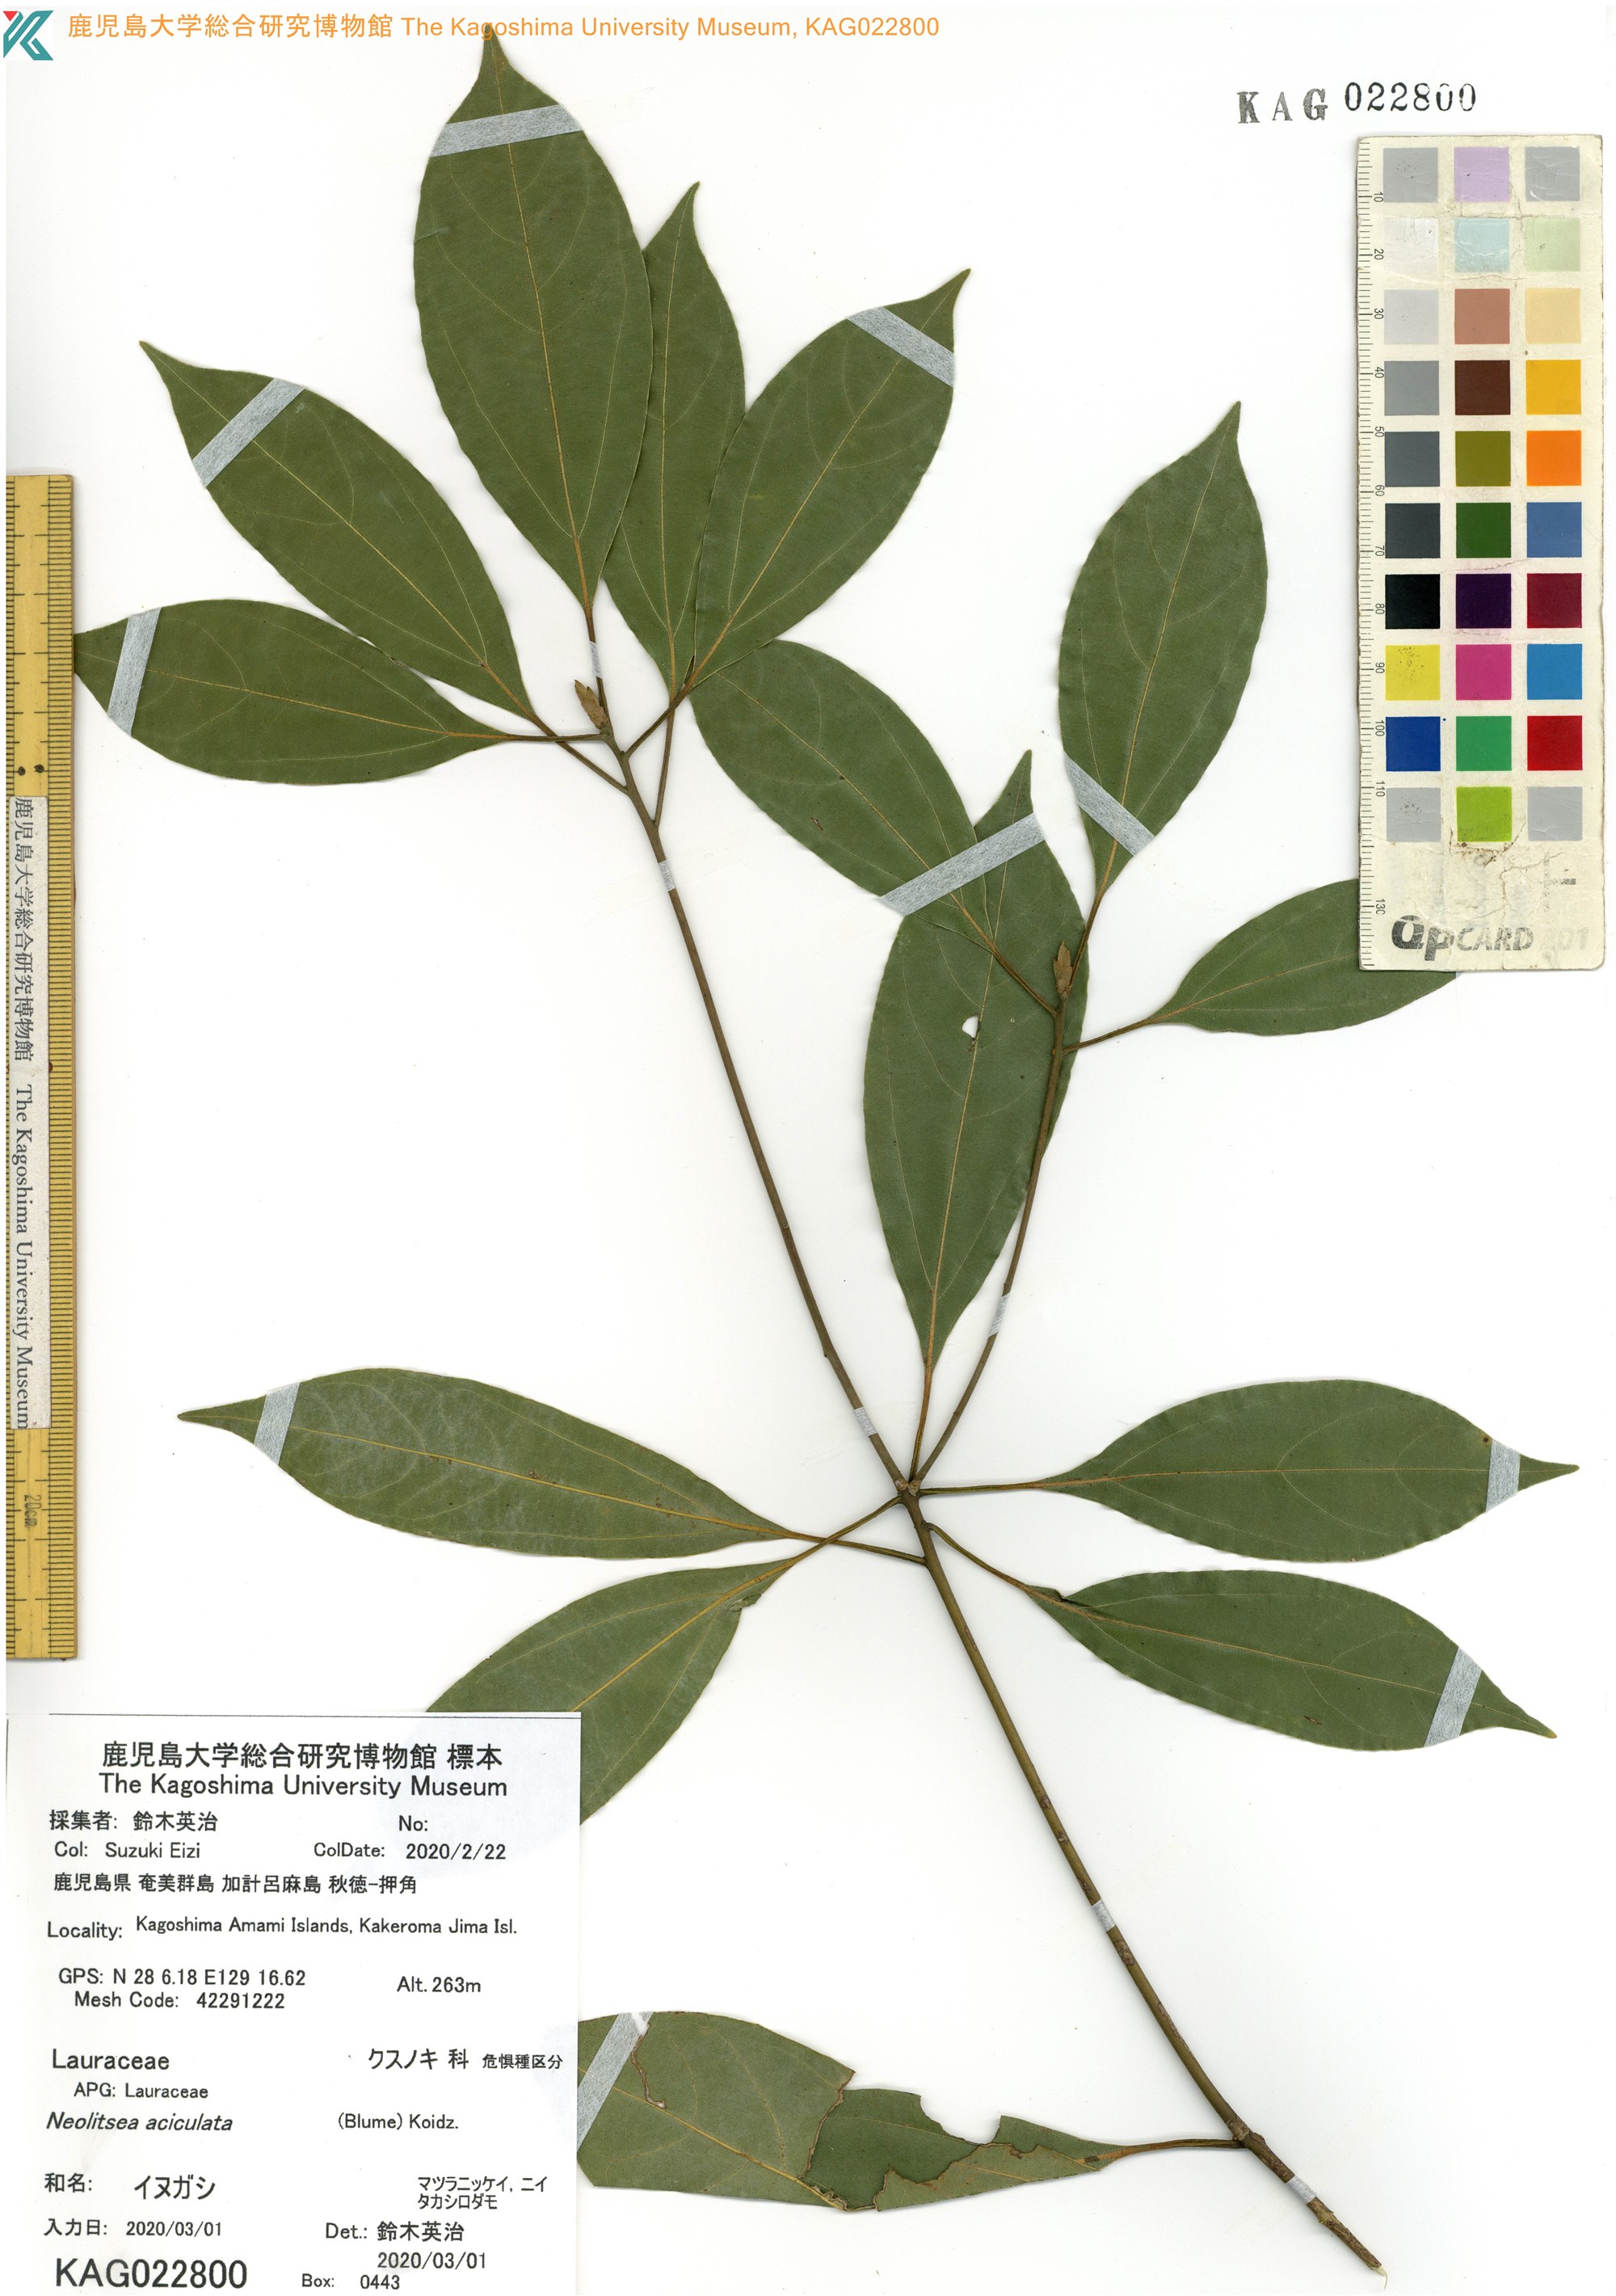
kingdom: Plantae
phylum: Tracheophyta
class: Magnoliopsida
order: Laurales
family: Lauraceae
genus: Neolitsea
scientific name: Neolitsea aciculata
